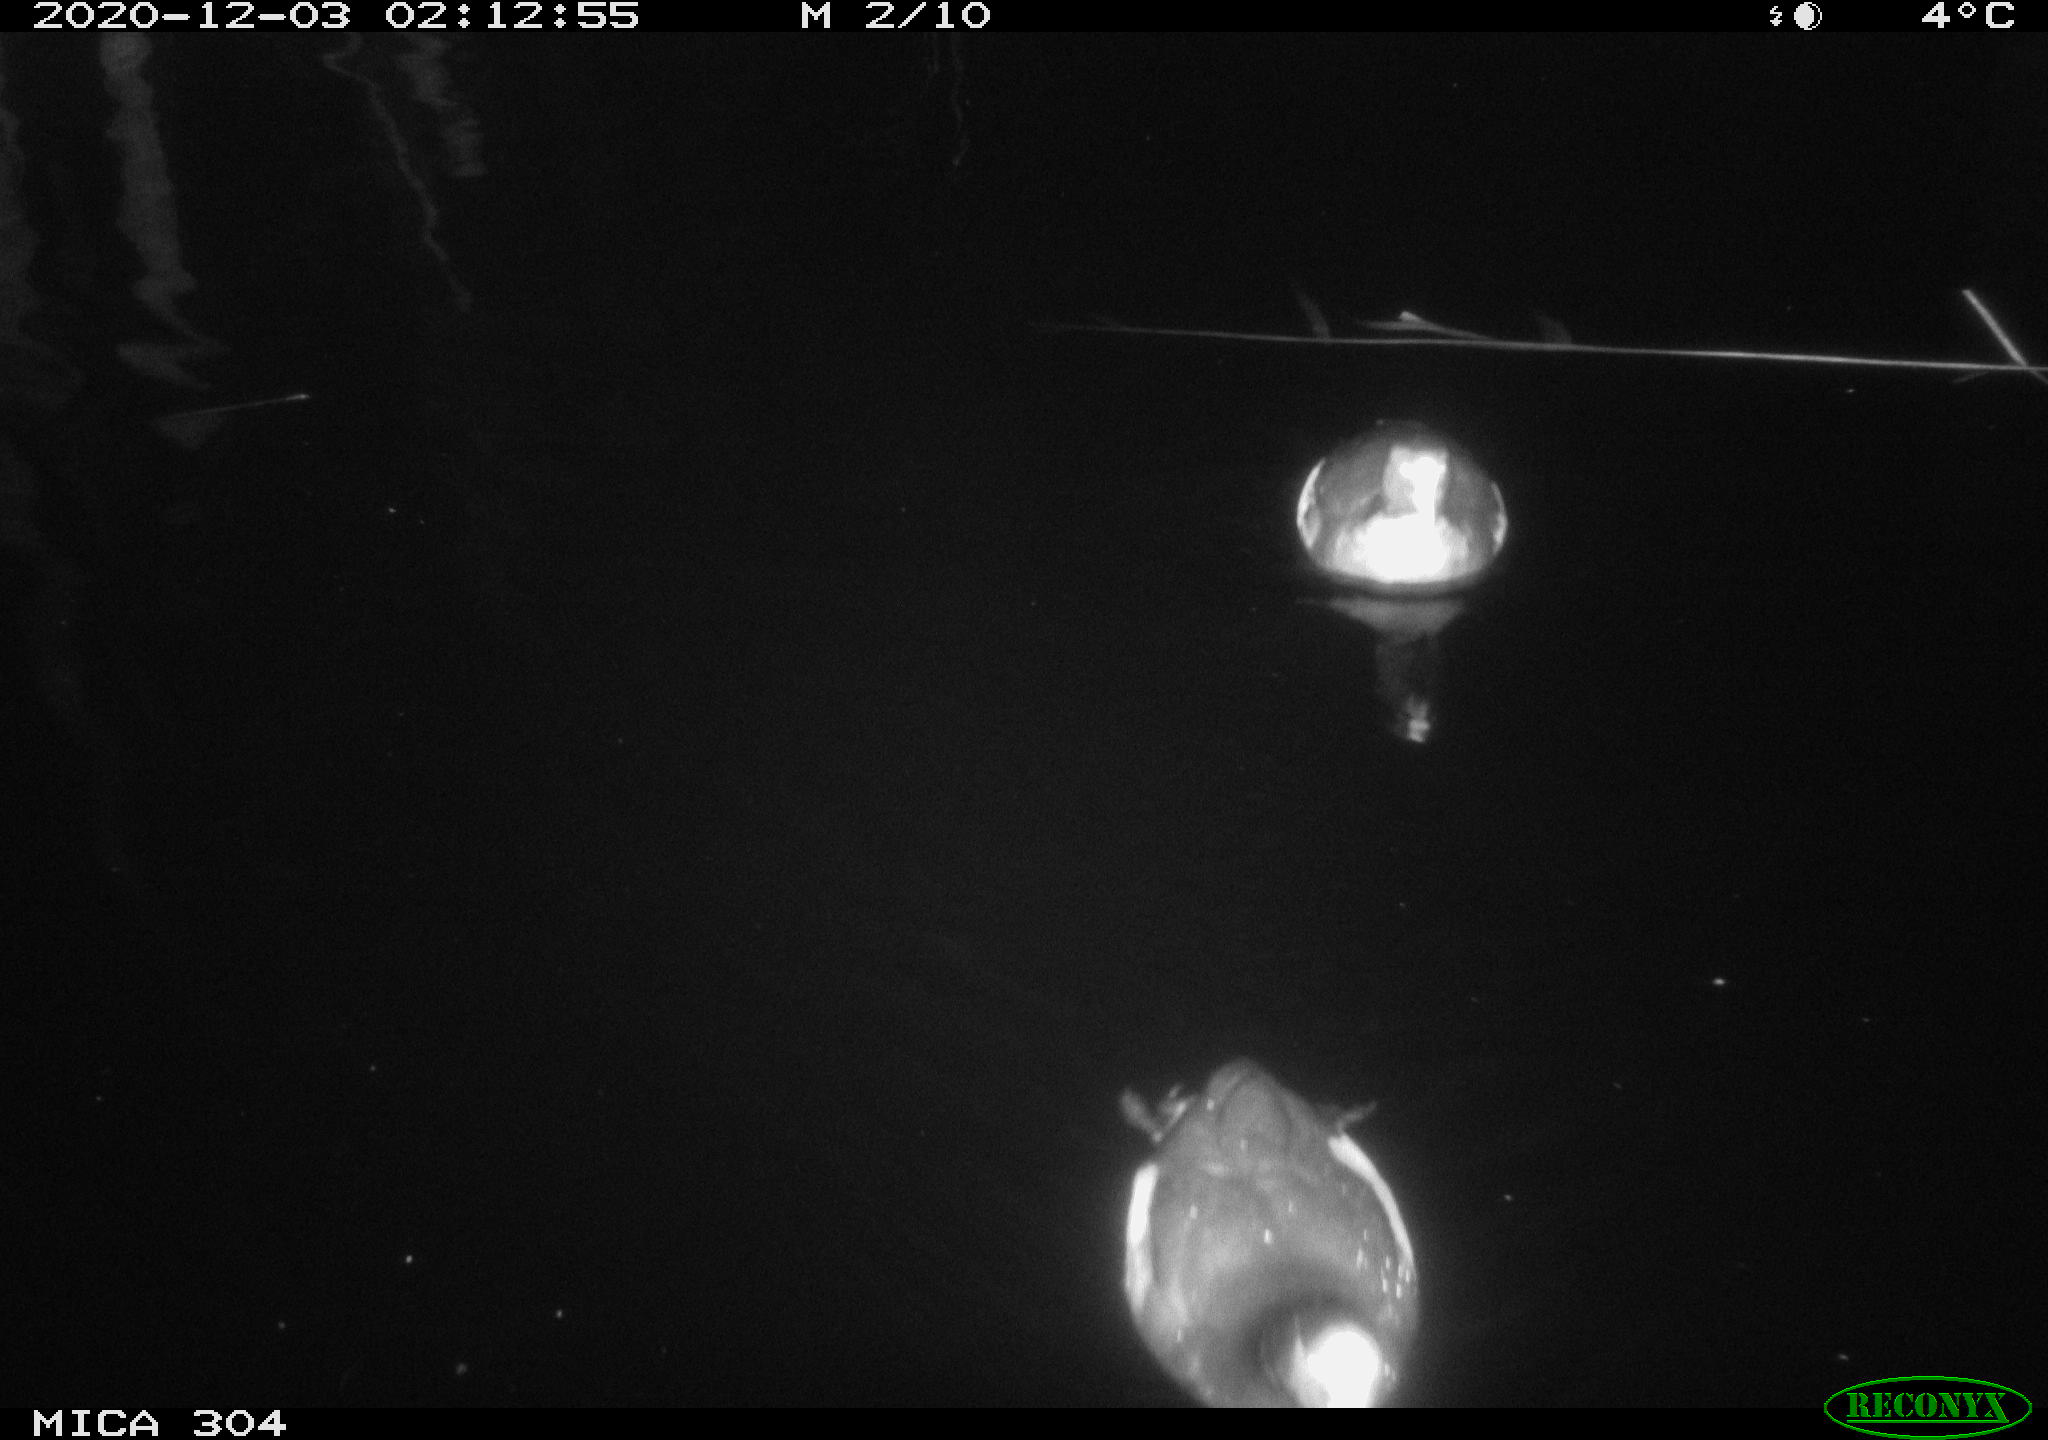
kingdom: Animalia
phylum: Chordata
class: Aves
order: Gruiformes
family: Rallidae
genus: Fulica
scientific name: Fulica atra
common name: Eurasian coot
